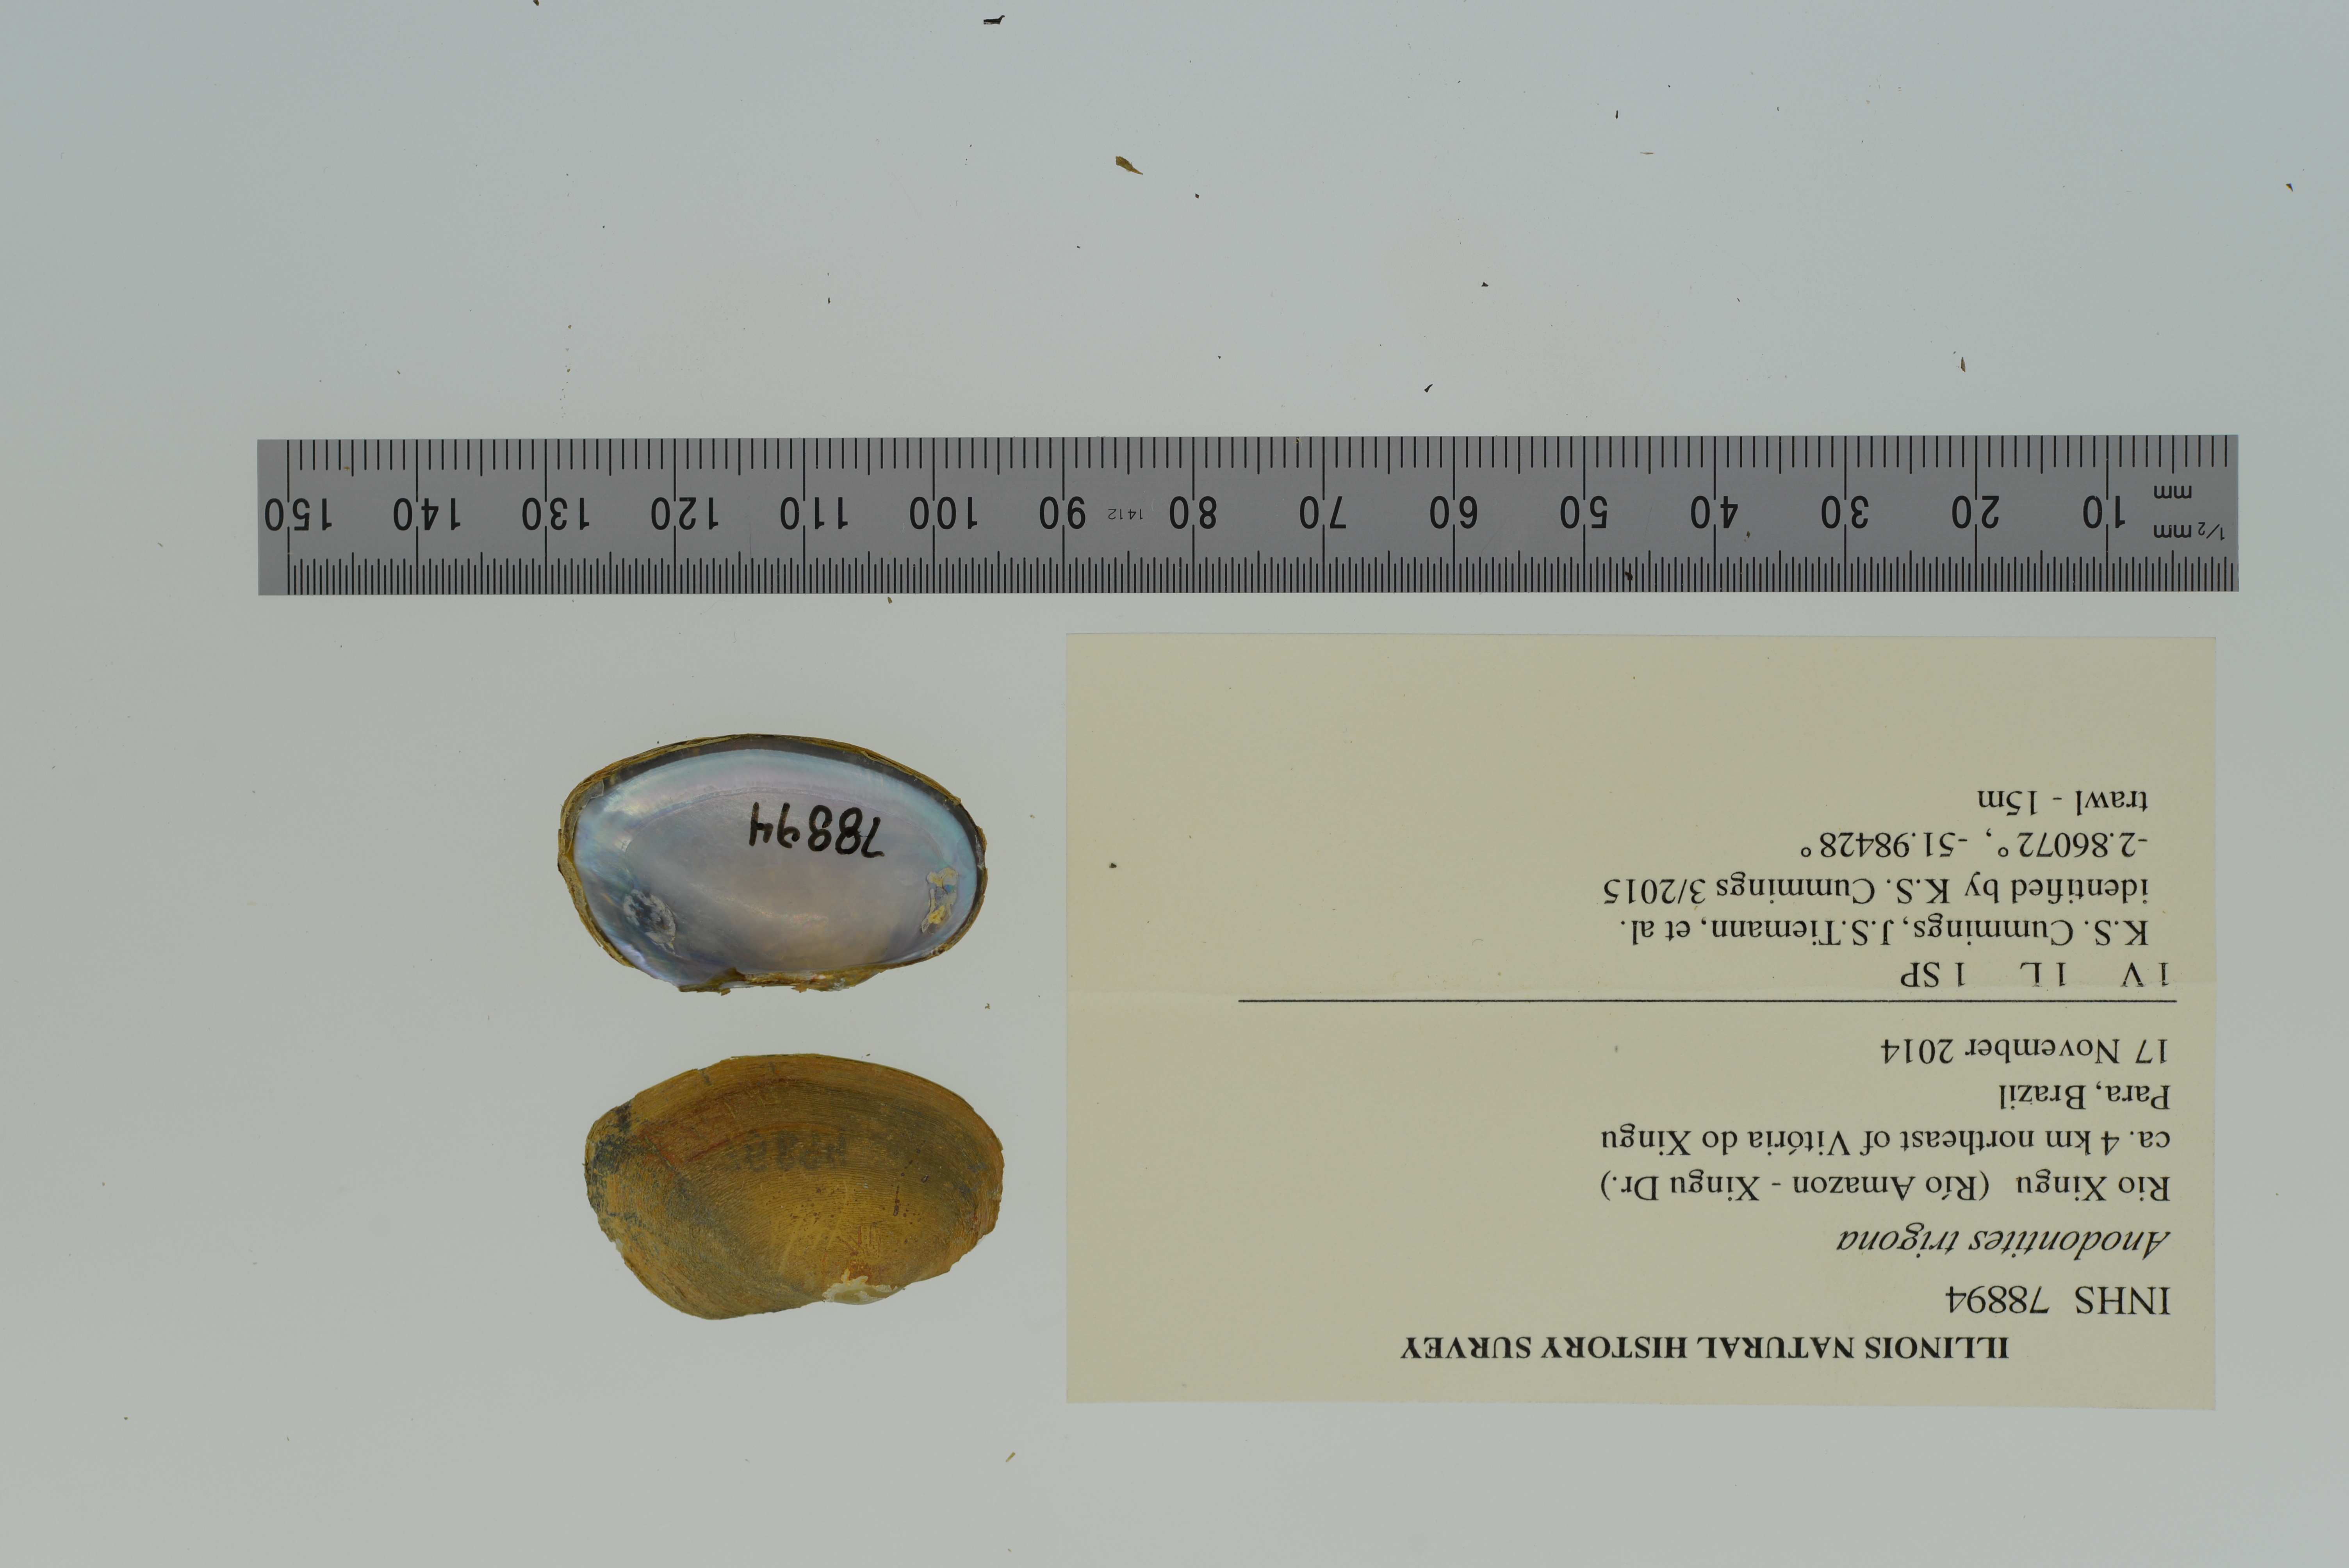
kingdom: Animalia
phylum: Mollusca
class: Bivalvia
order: Unionida
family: Mycetopodidae
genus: Anodontites
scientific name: Anodontites trigona
